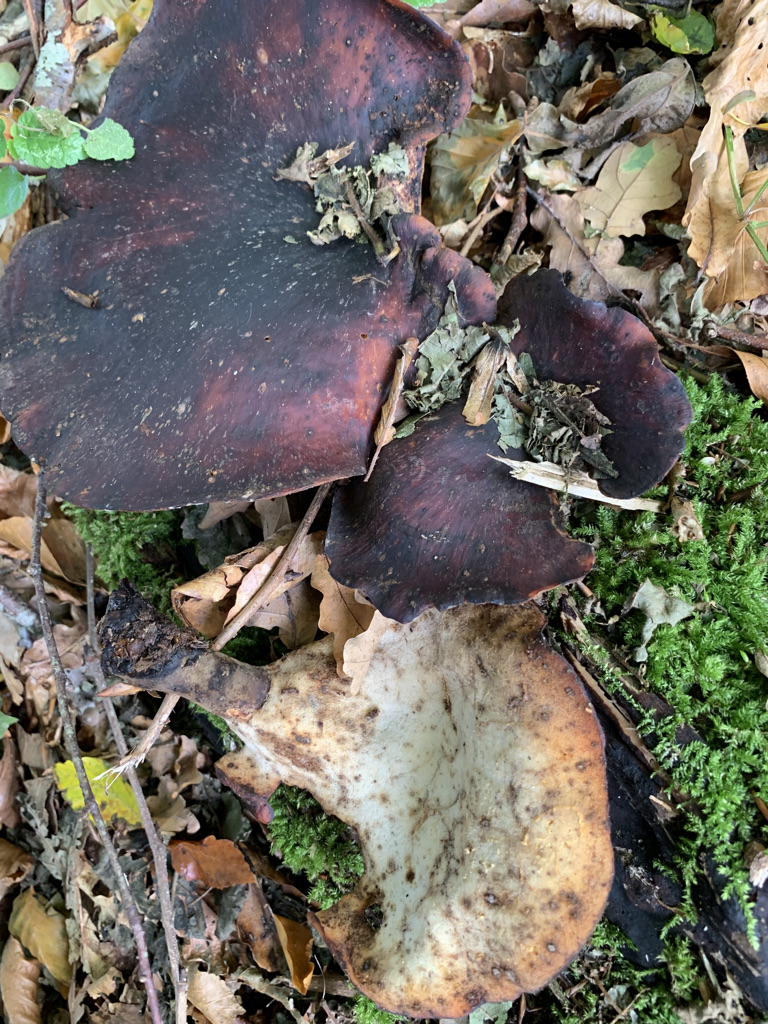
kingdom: Fungi
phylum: Basidiomycota
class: Agaricomycetes
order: Polyporales
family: Polyporaceae
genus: Picipes
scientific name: Picipes badius
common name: kastaniebrun stilkporesvamp
